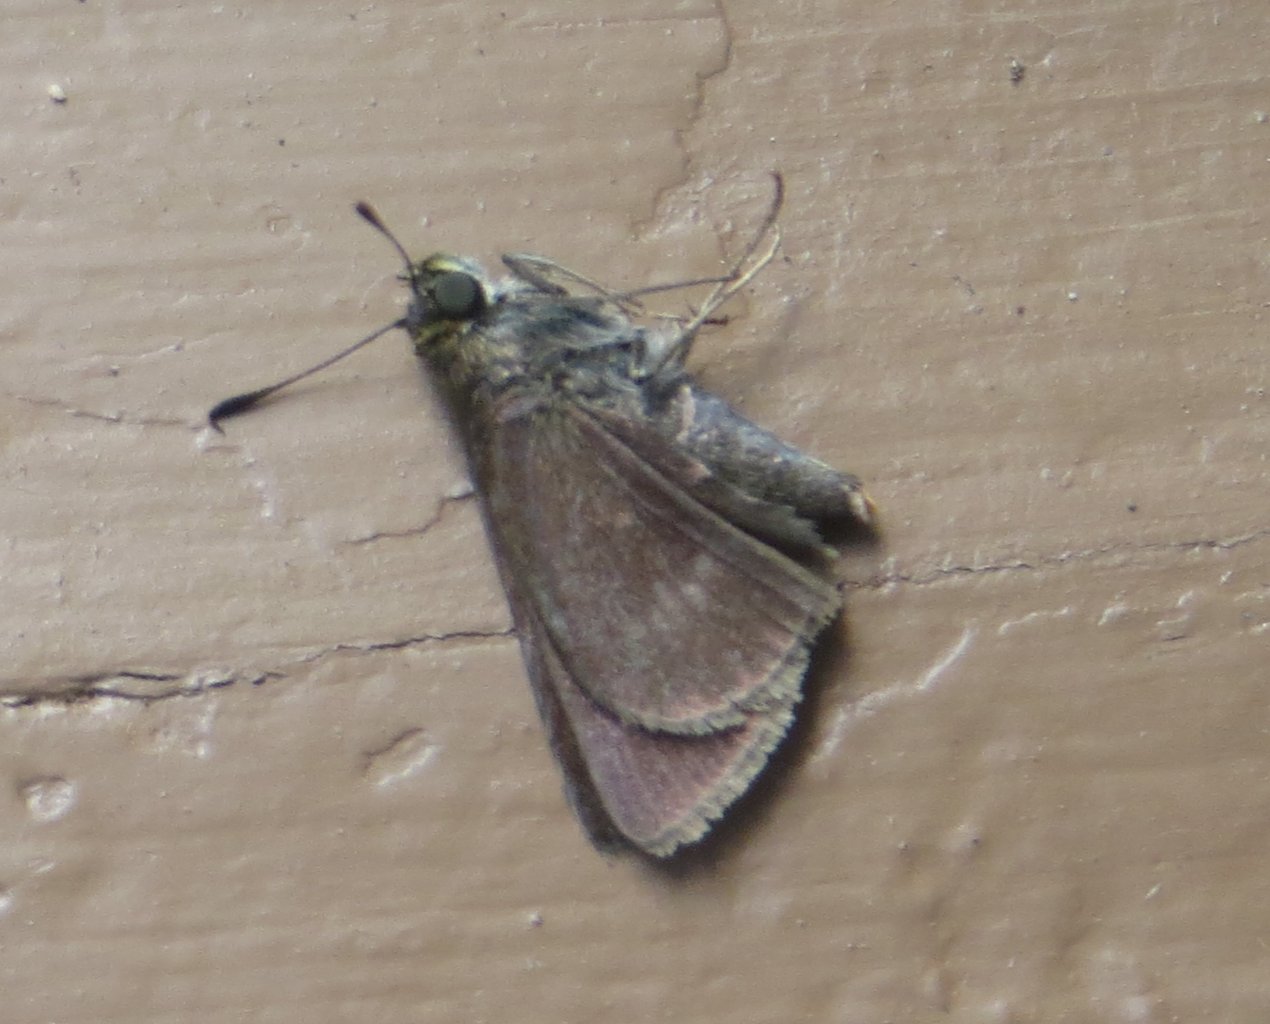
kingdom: Animalia
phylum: Arthropoda
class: Insecta
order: Lepidoptera
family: Hesperiidae
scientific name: Hesperiidae
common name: Skippers
